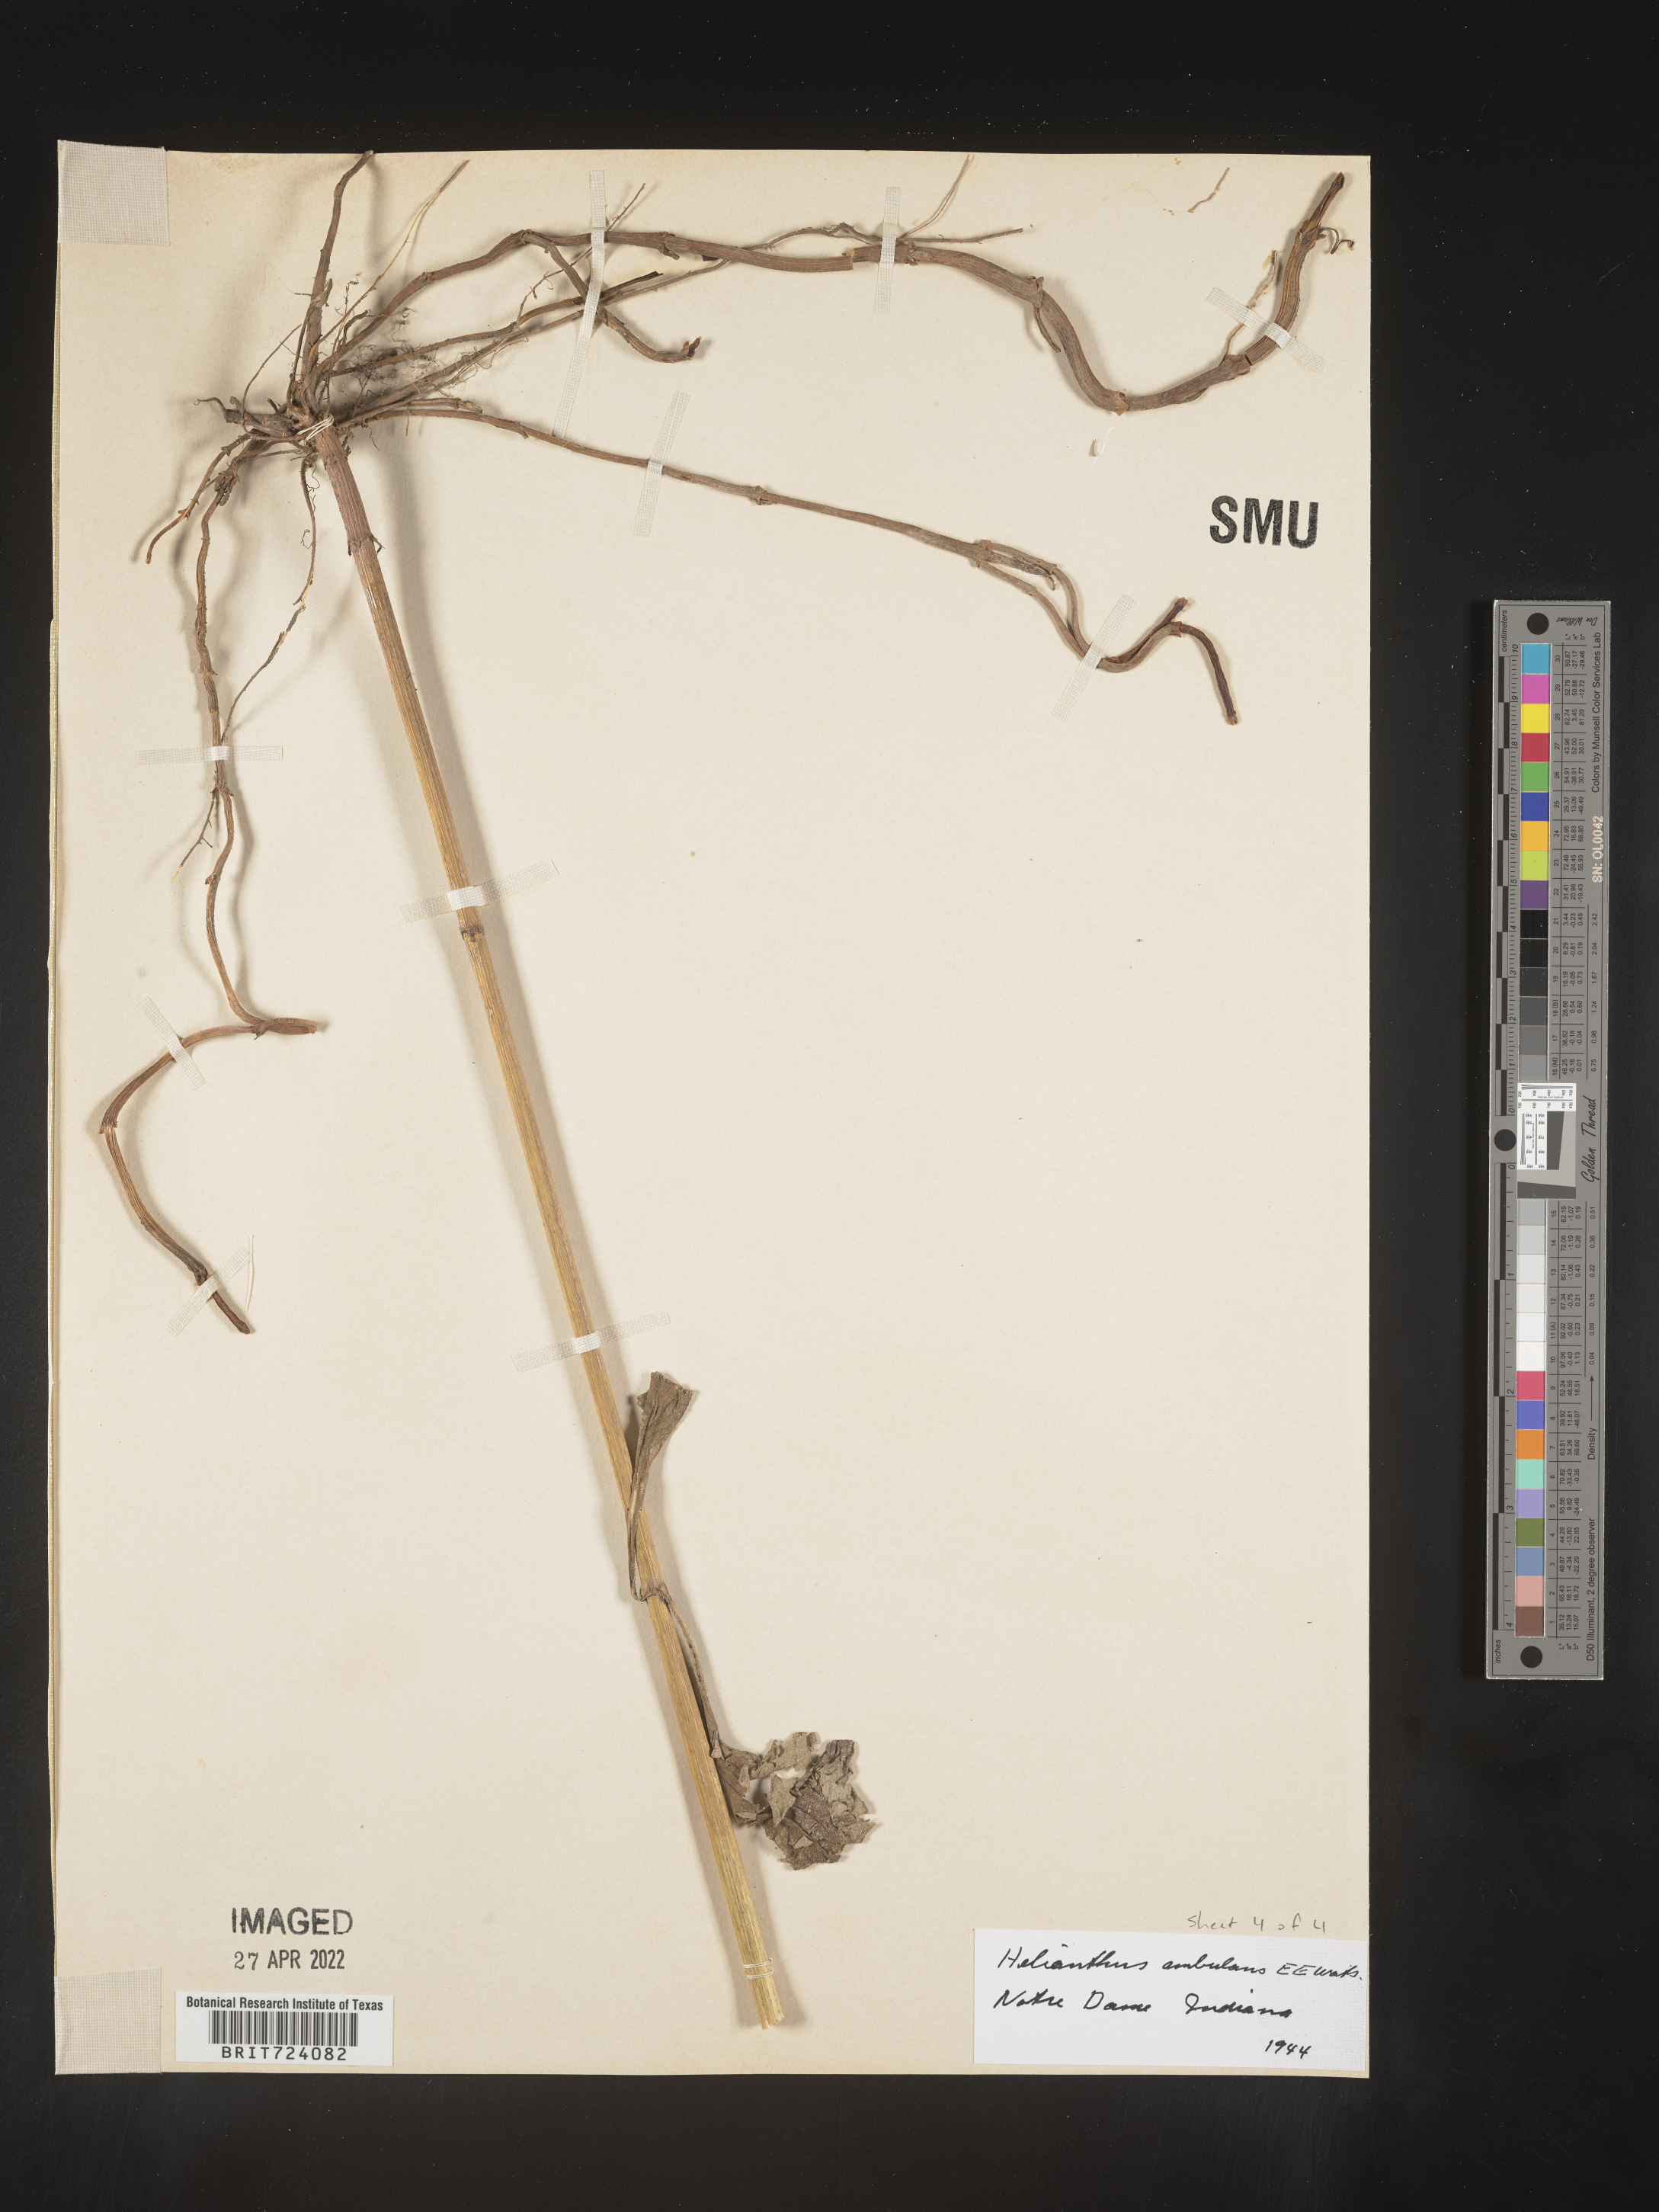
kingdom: Plantae
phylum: Tracheophyta
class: Magnoliopsida
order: Asterales
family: Asteraceae
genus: Helianthus
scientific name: Helianthus
